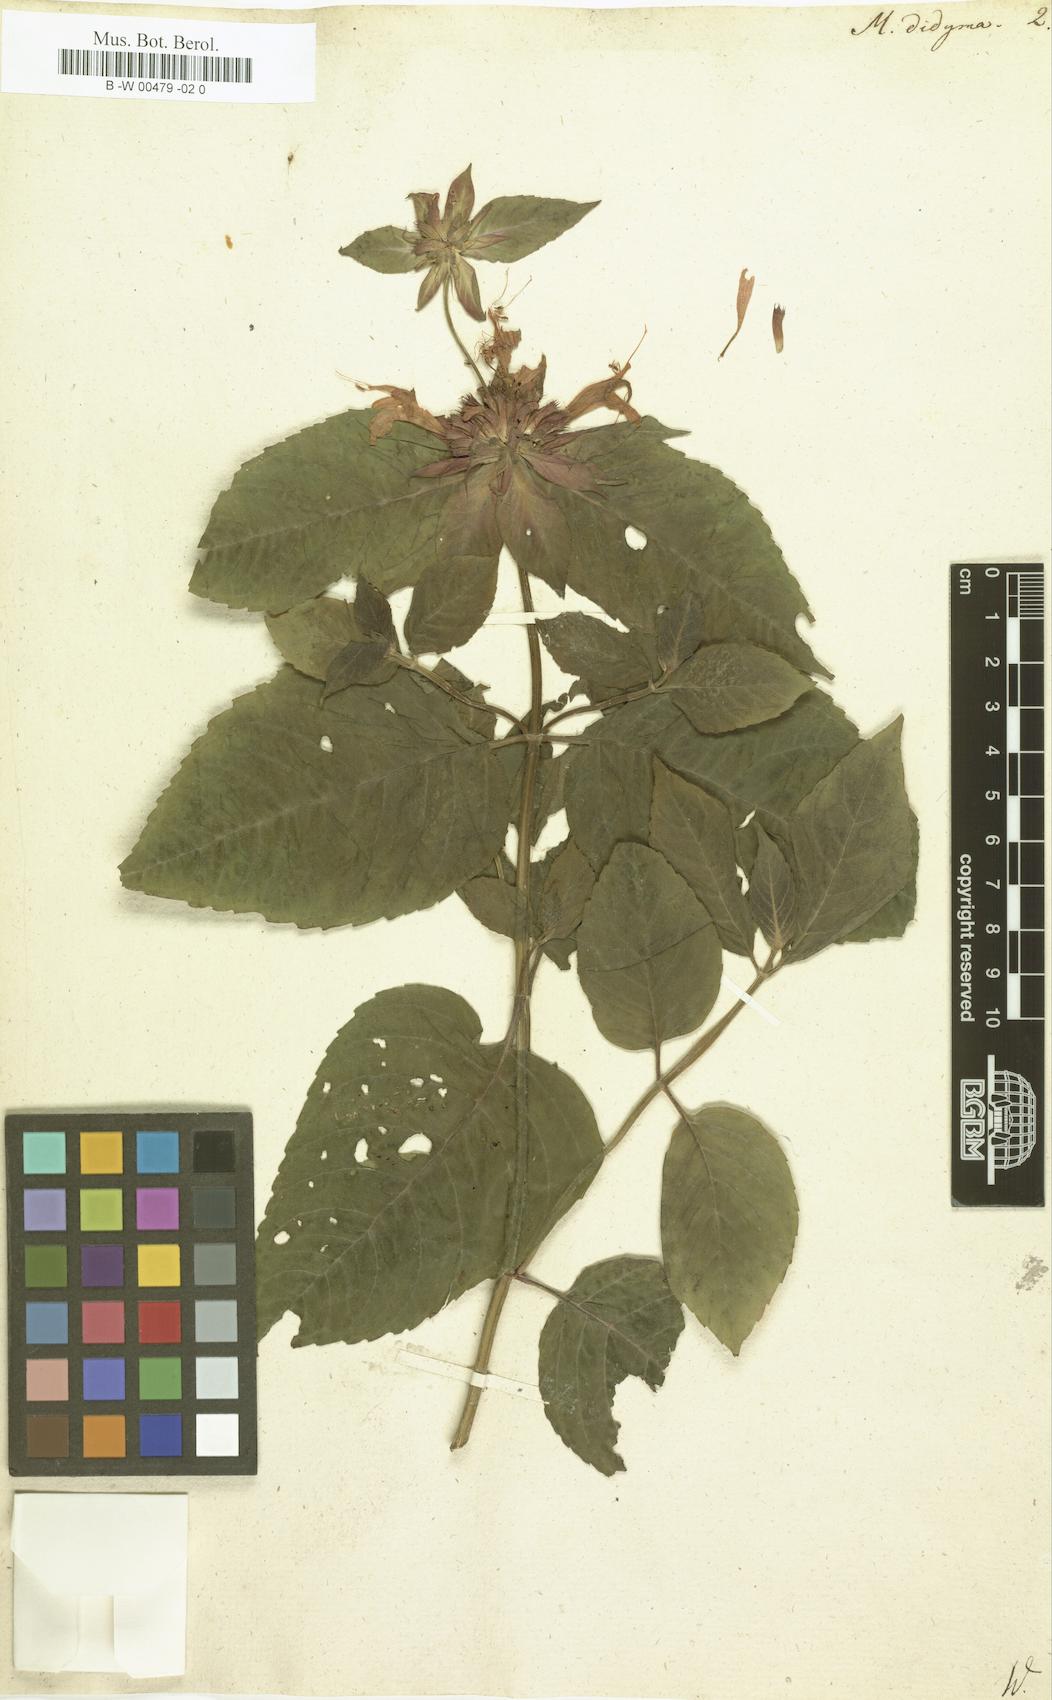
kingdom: Plantae
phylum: Tracheophyta
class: Magnoliopsida
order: Lamiales
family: Lamiaceae
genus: Monarda
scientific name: Monarda didyma
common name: Beebalm
